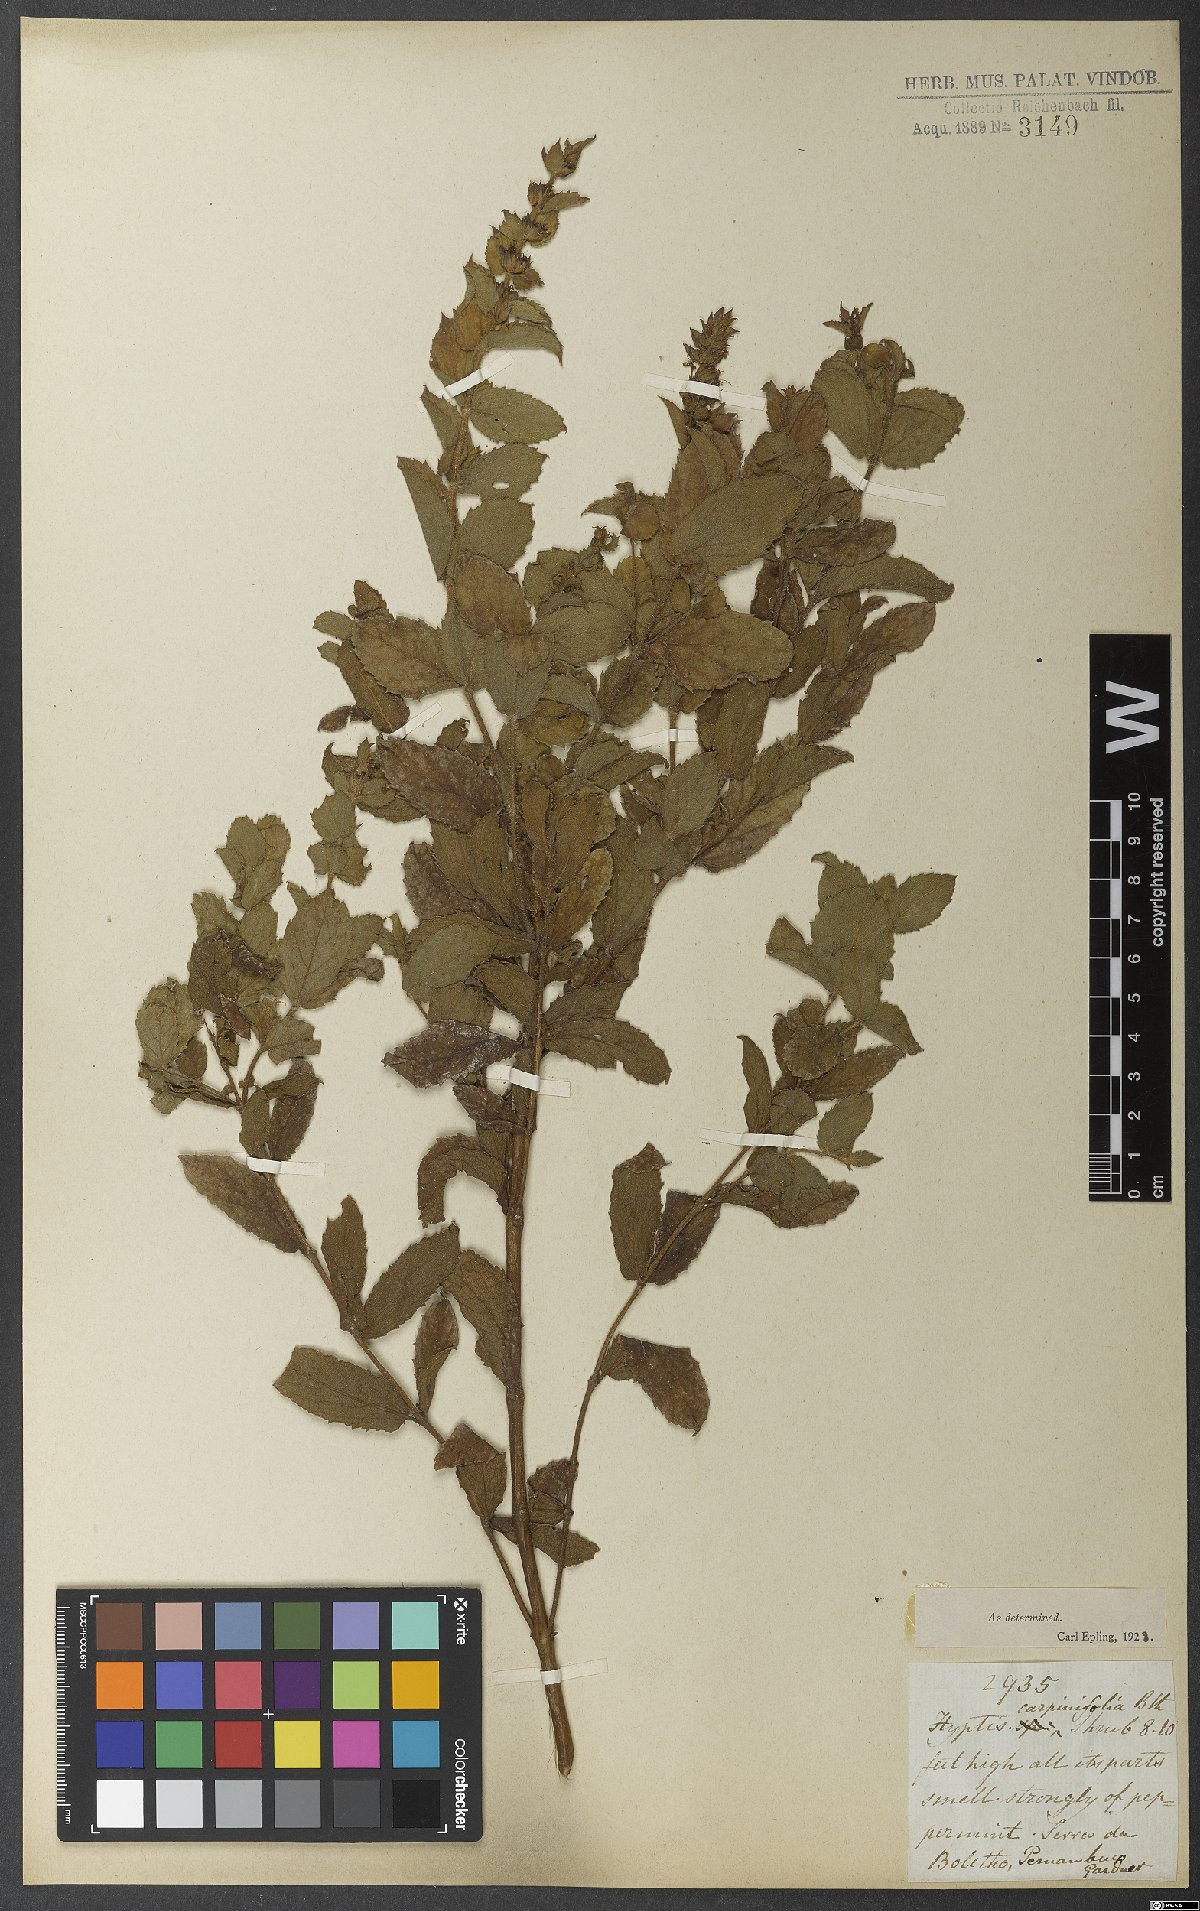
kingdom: Plantae
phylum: Tracheophyta
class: Magnoliopsida
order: Lamiales
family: Lamiaceae
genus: Cantinoa
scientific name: Cantinoa carpinifolia
